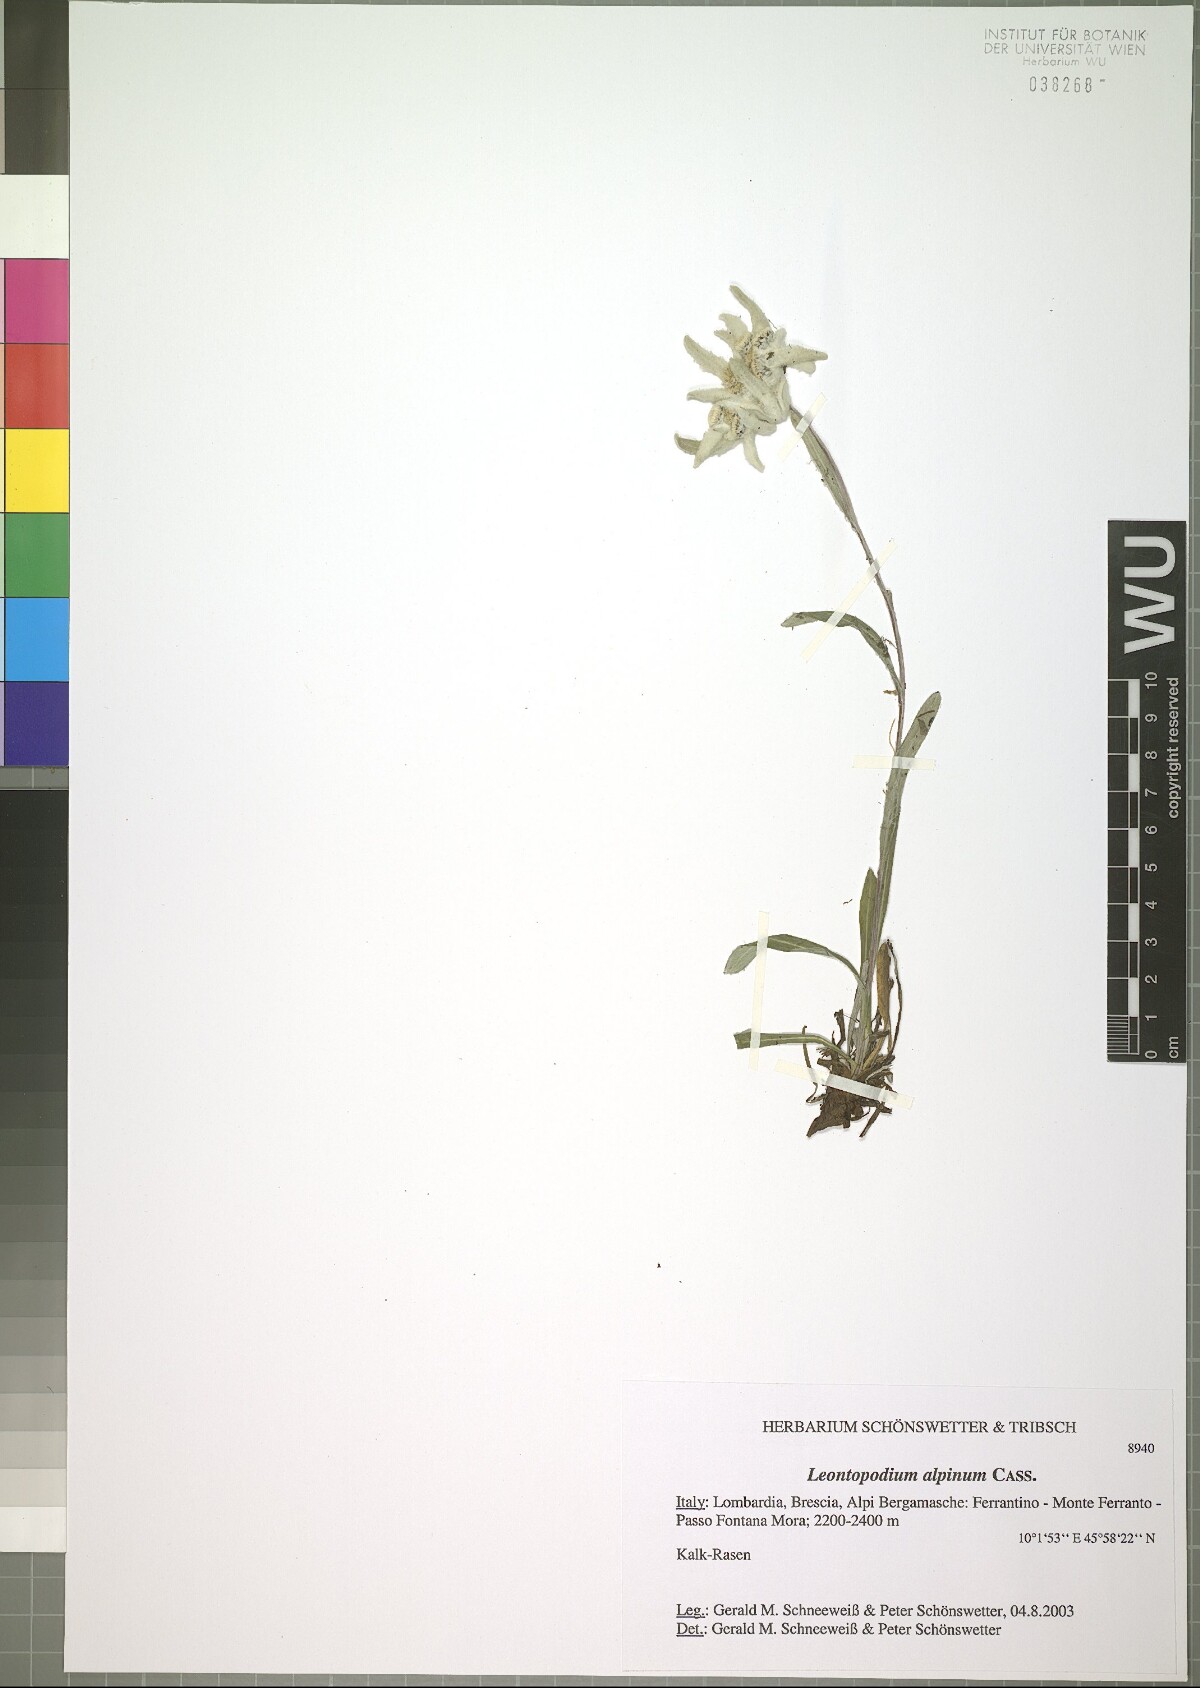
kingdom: Plantae
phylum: Tracheophyta
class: Magnoliopsida
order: Asterales
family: Asteraceae
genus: Leontopodium
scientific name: Leontopodium nivale
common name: Edelweiss
